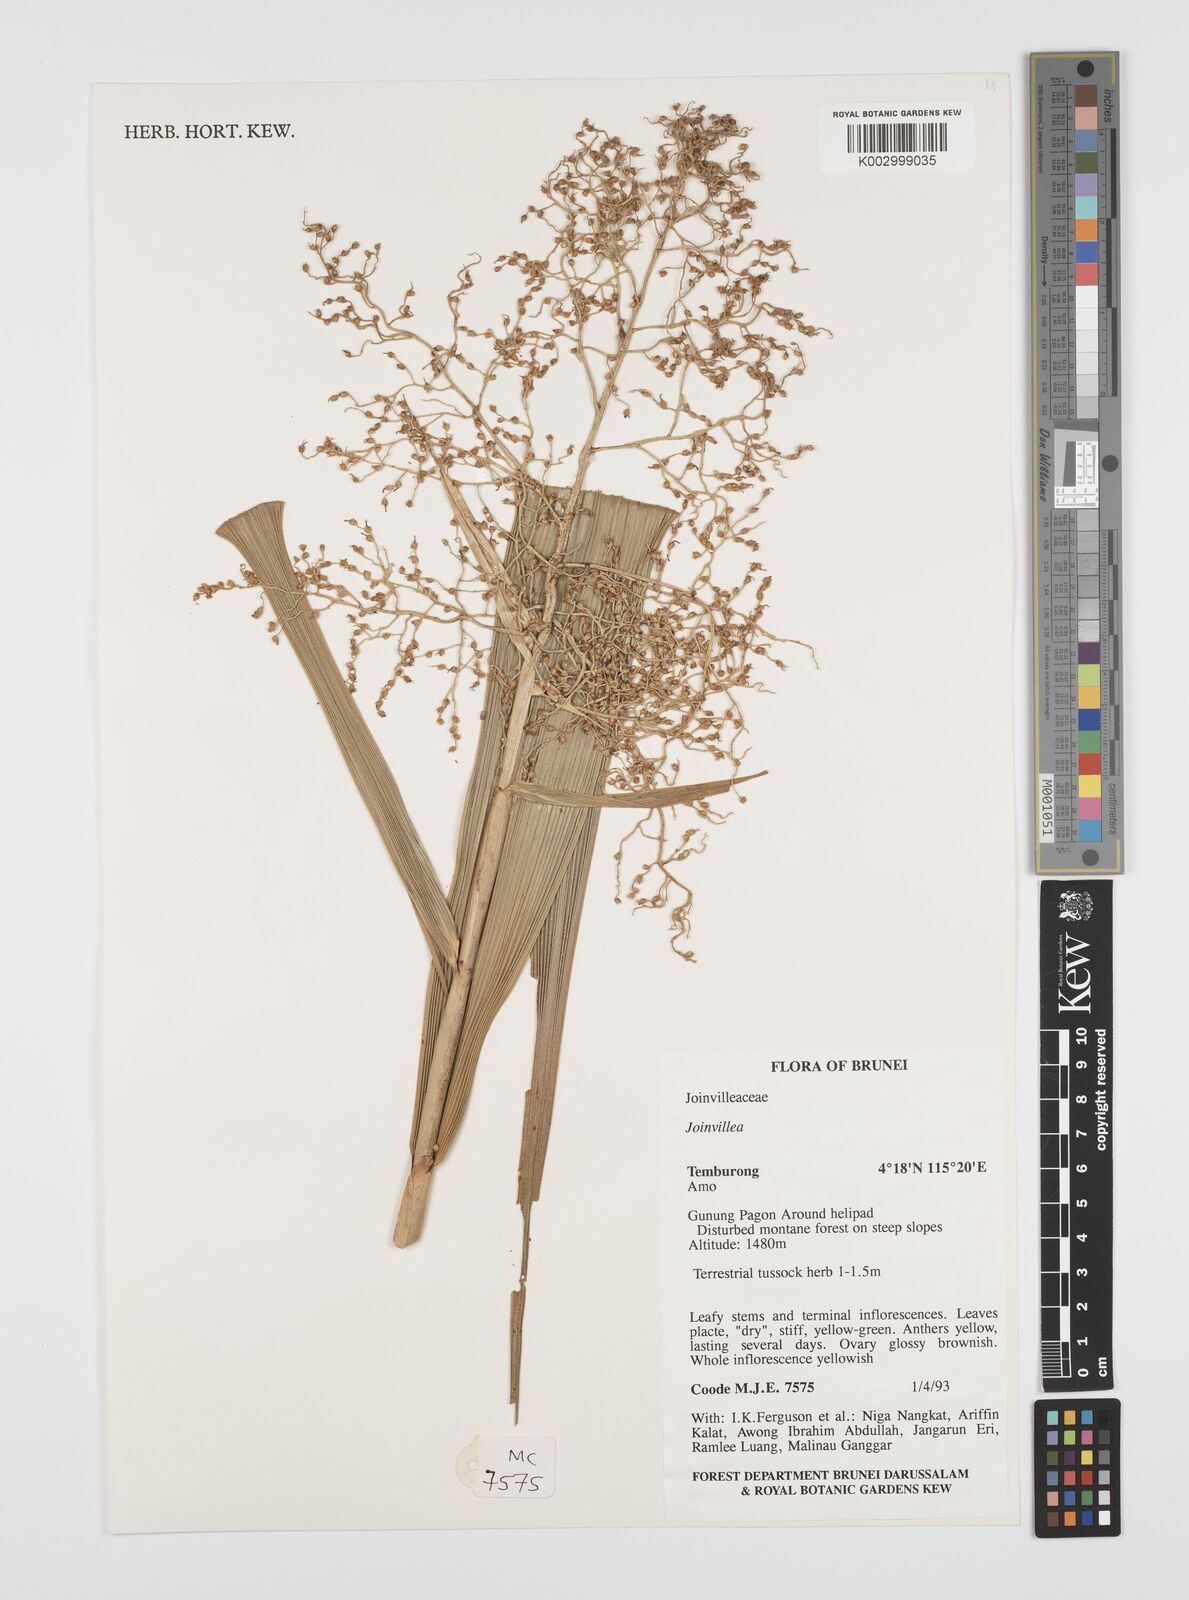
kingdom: Plantae
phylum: Tracheophyta
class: Liliopsida
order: Poales
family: Joinvilleaceae
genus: Joinvillea
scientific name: Joinvillea borneensis
